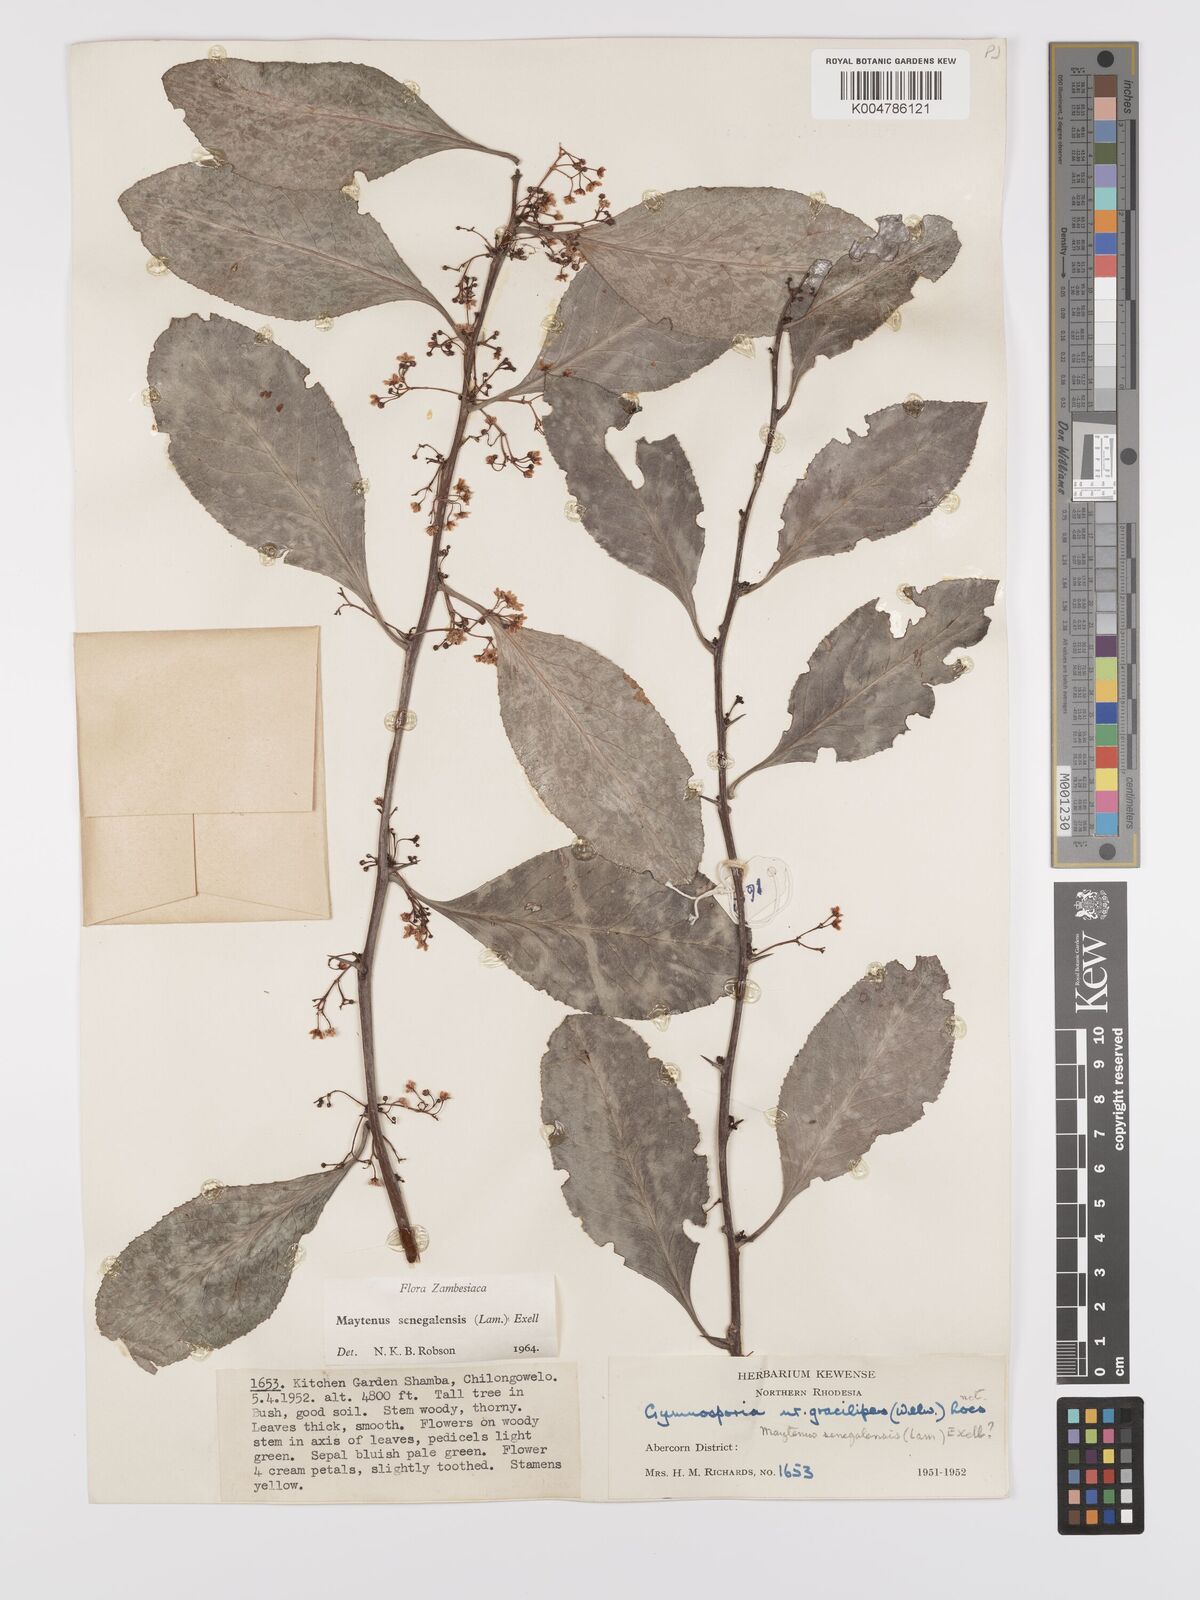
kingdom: Plantae
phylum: Tracheophyta
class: Magnoliopsida
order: Celastrales
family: Celastraceae
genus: Gymnosporia
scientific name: Gymnosporia senegalensis
